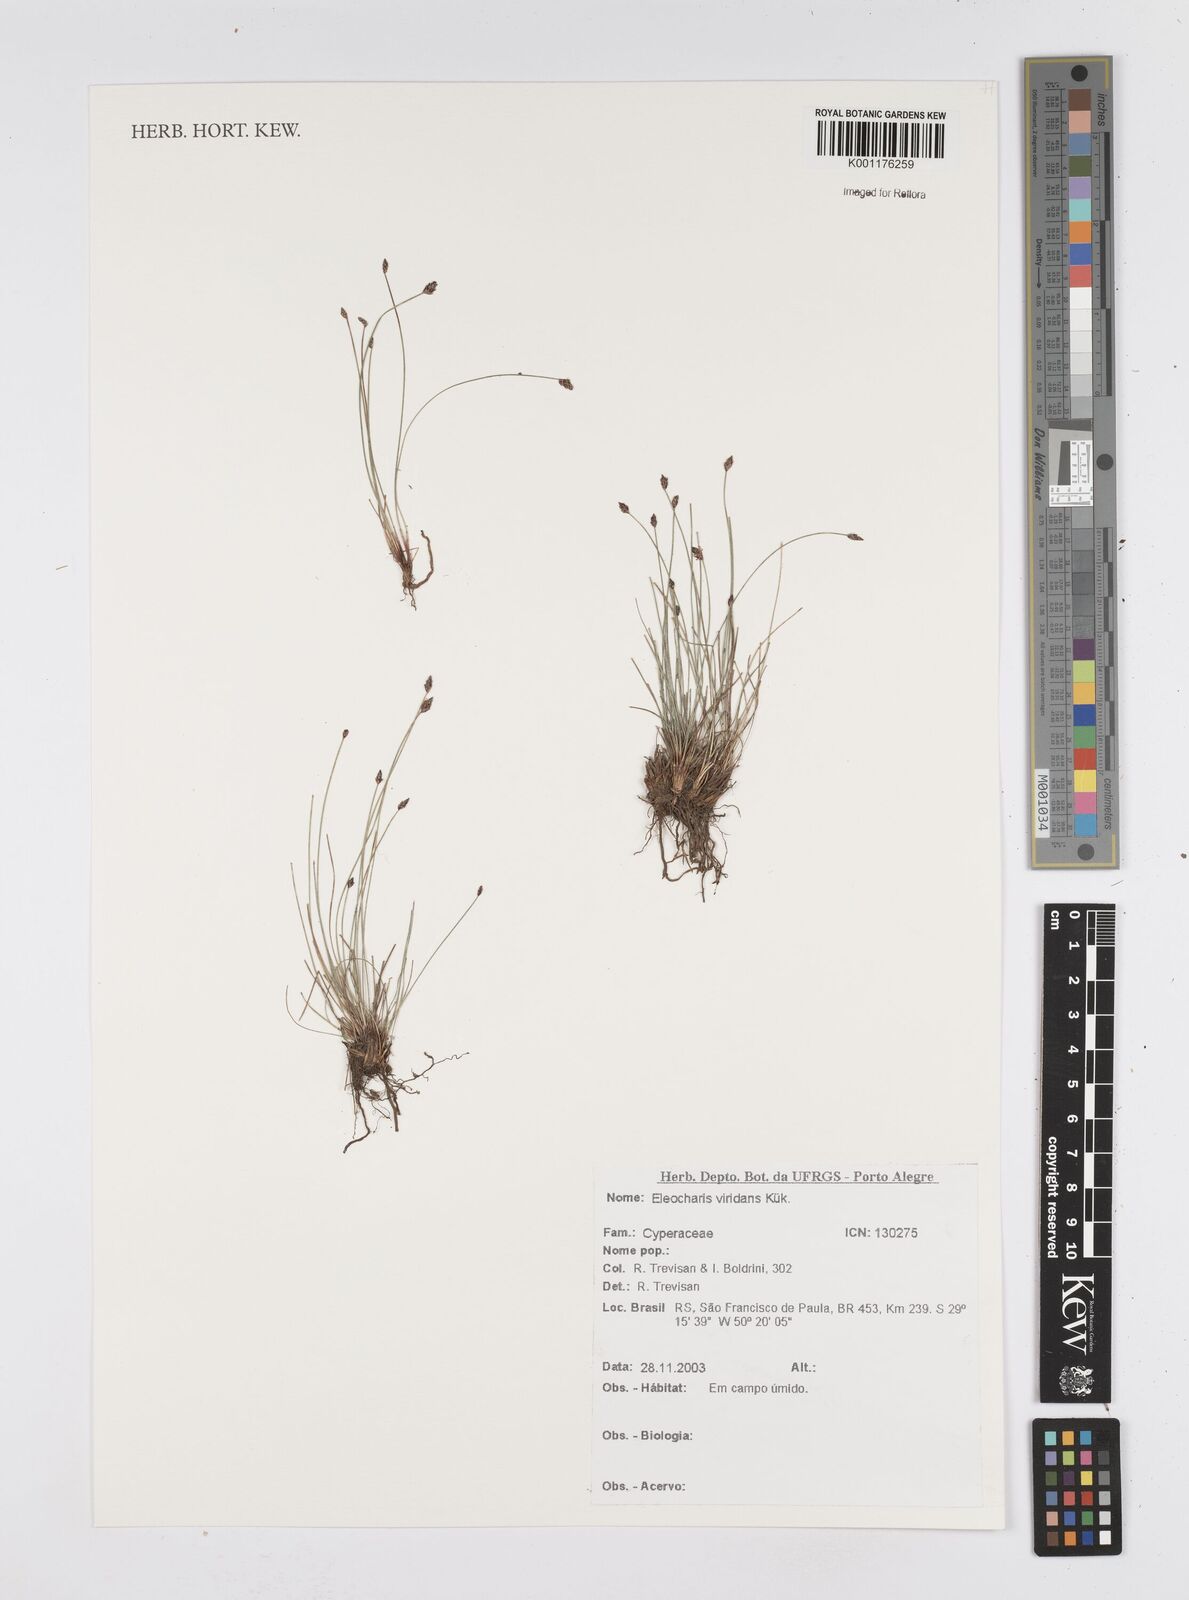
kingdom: Plantae
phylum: Tracheophyta
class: Liliopsida
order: Poales
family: Cyperaceae
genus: Eleocharis
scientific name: Eleocharis viridans
